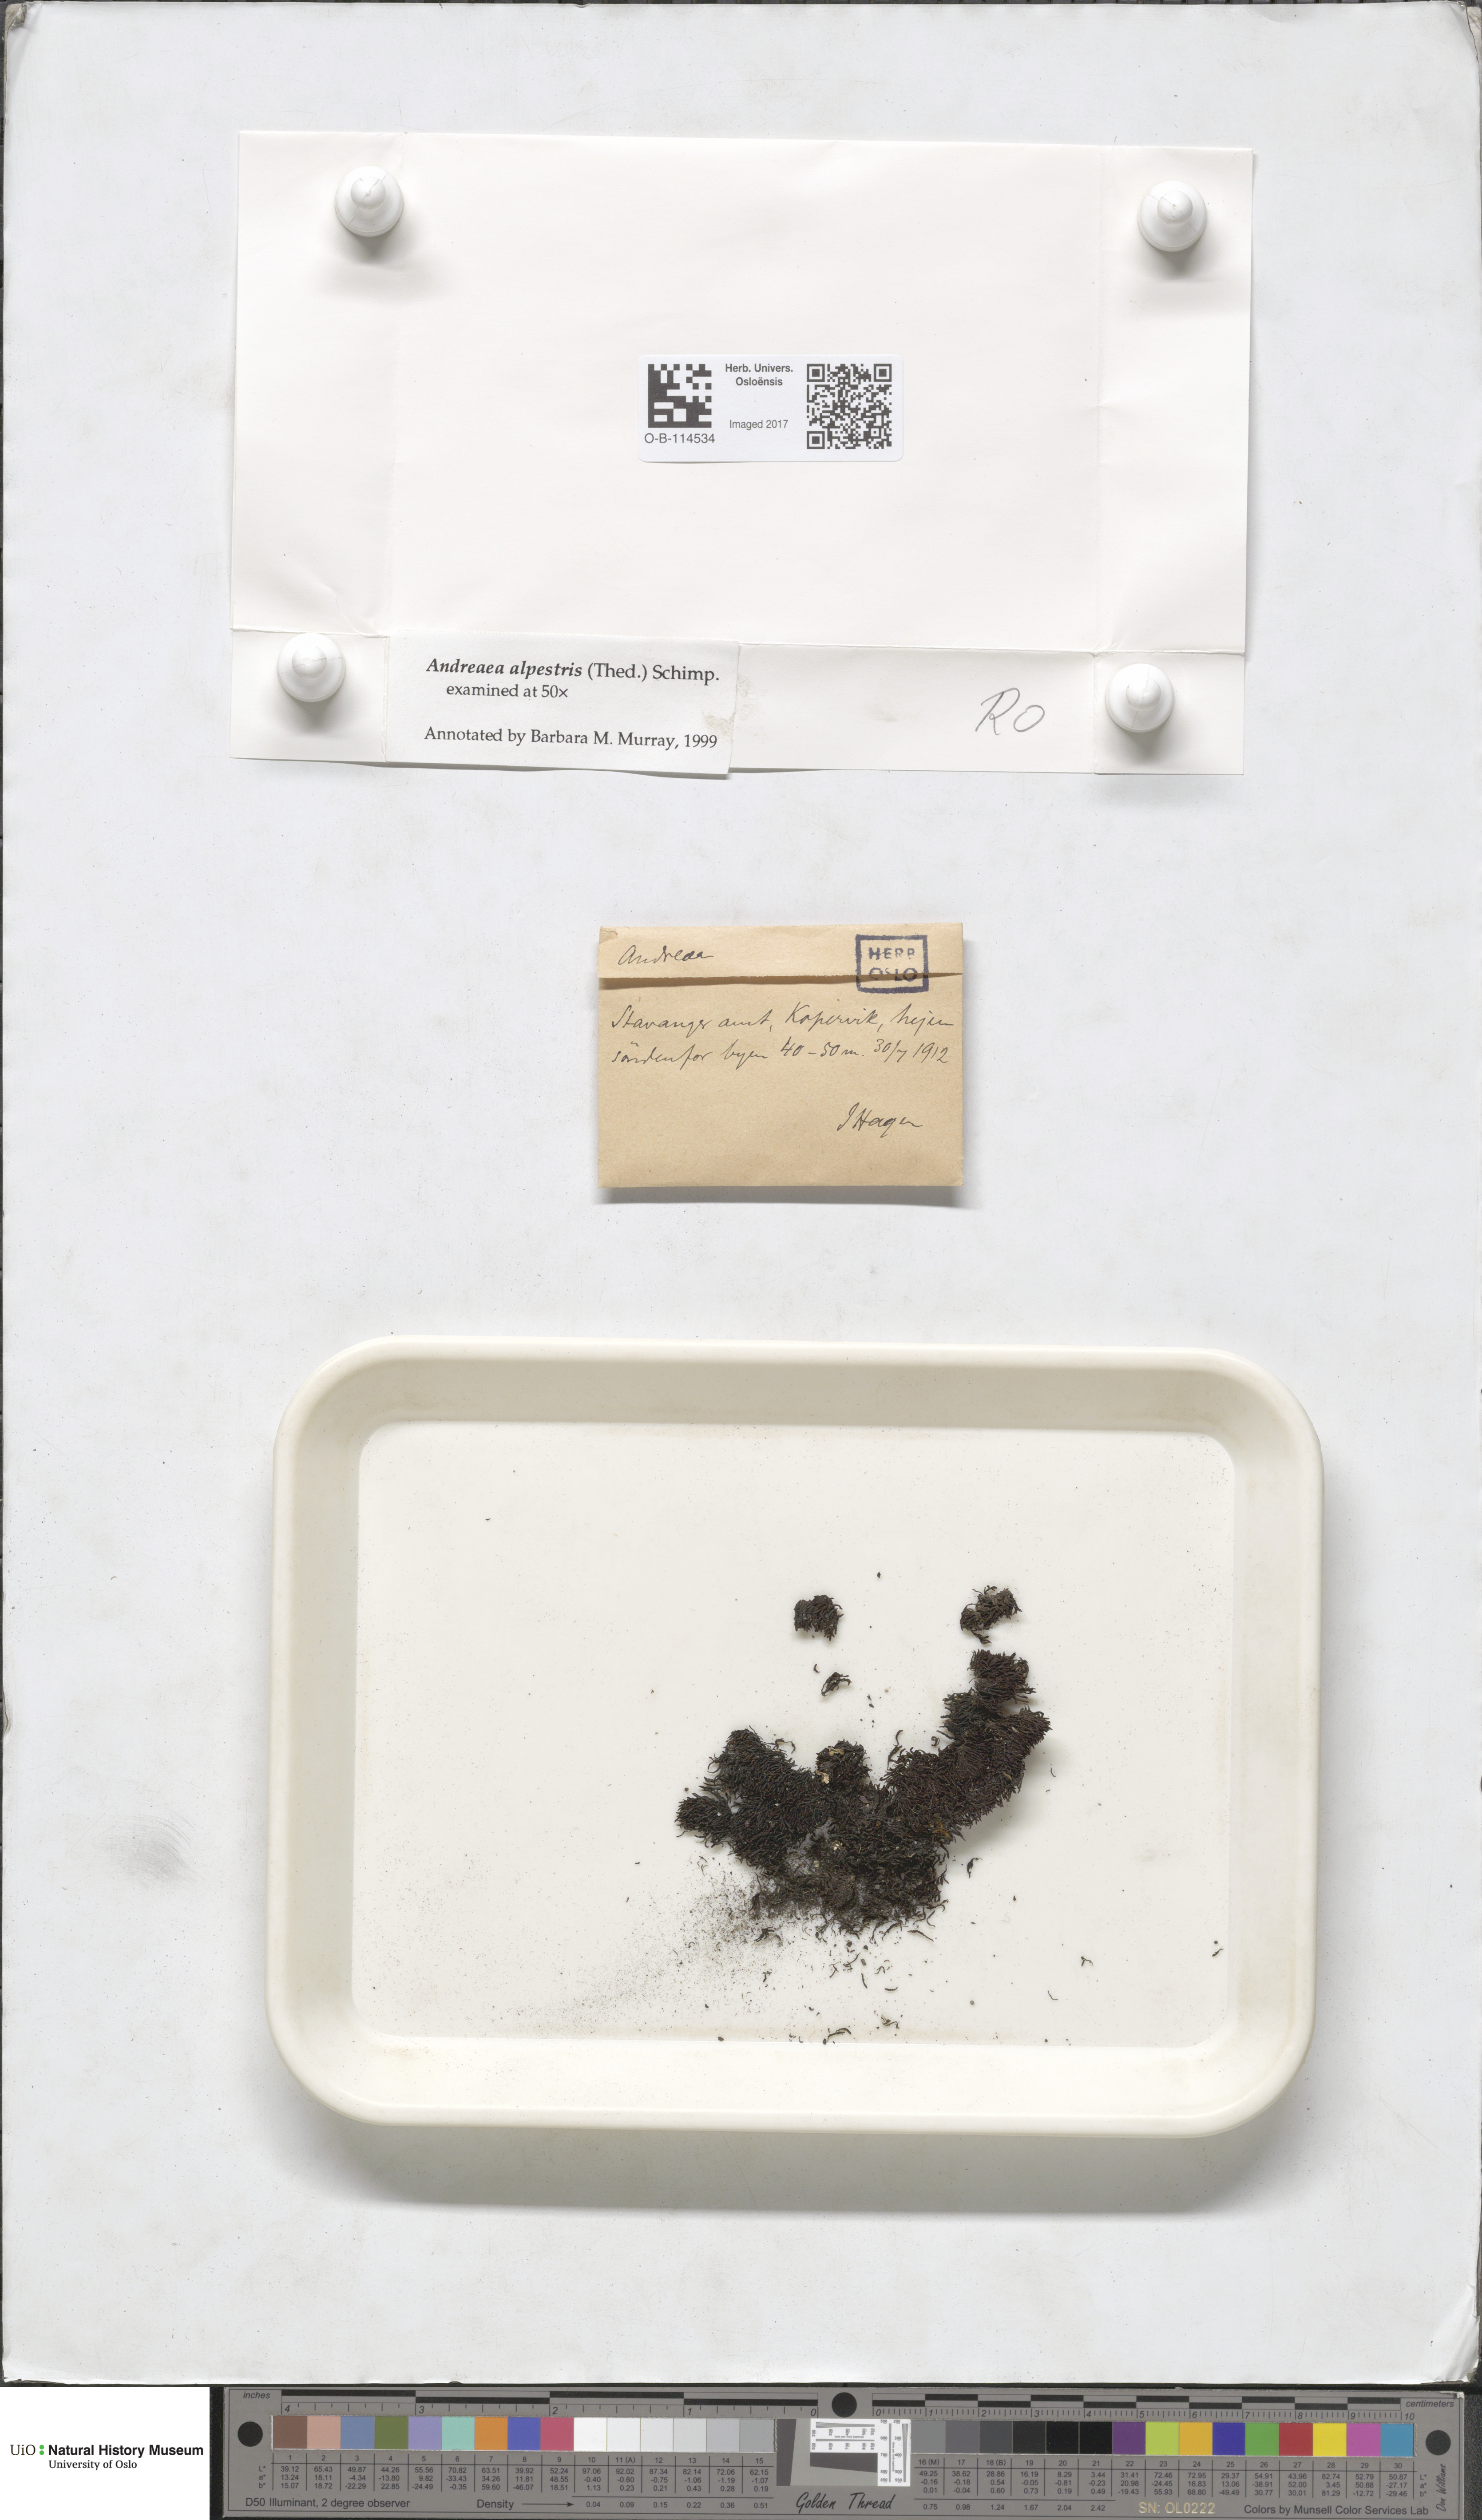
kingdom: Plantae
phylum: Bryophyta
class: Andreaeopsida
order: Andreaeales
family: Andreaeaceae
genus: Andreaea
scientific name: Andreaea alpestris
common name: Slender rock-moss
